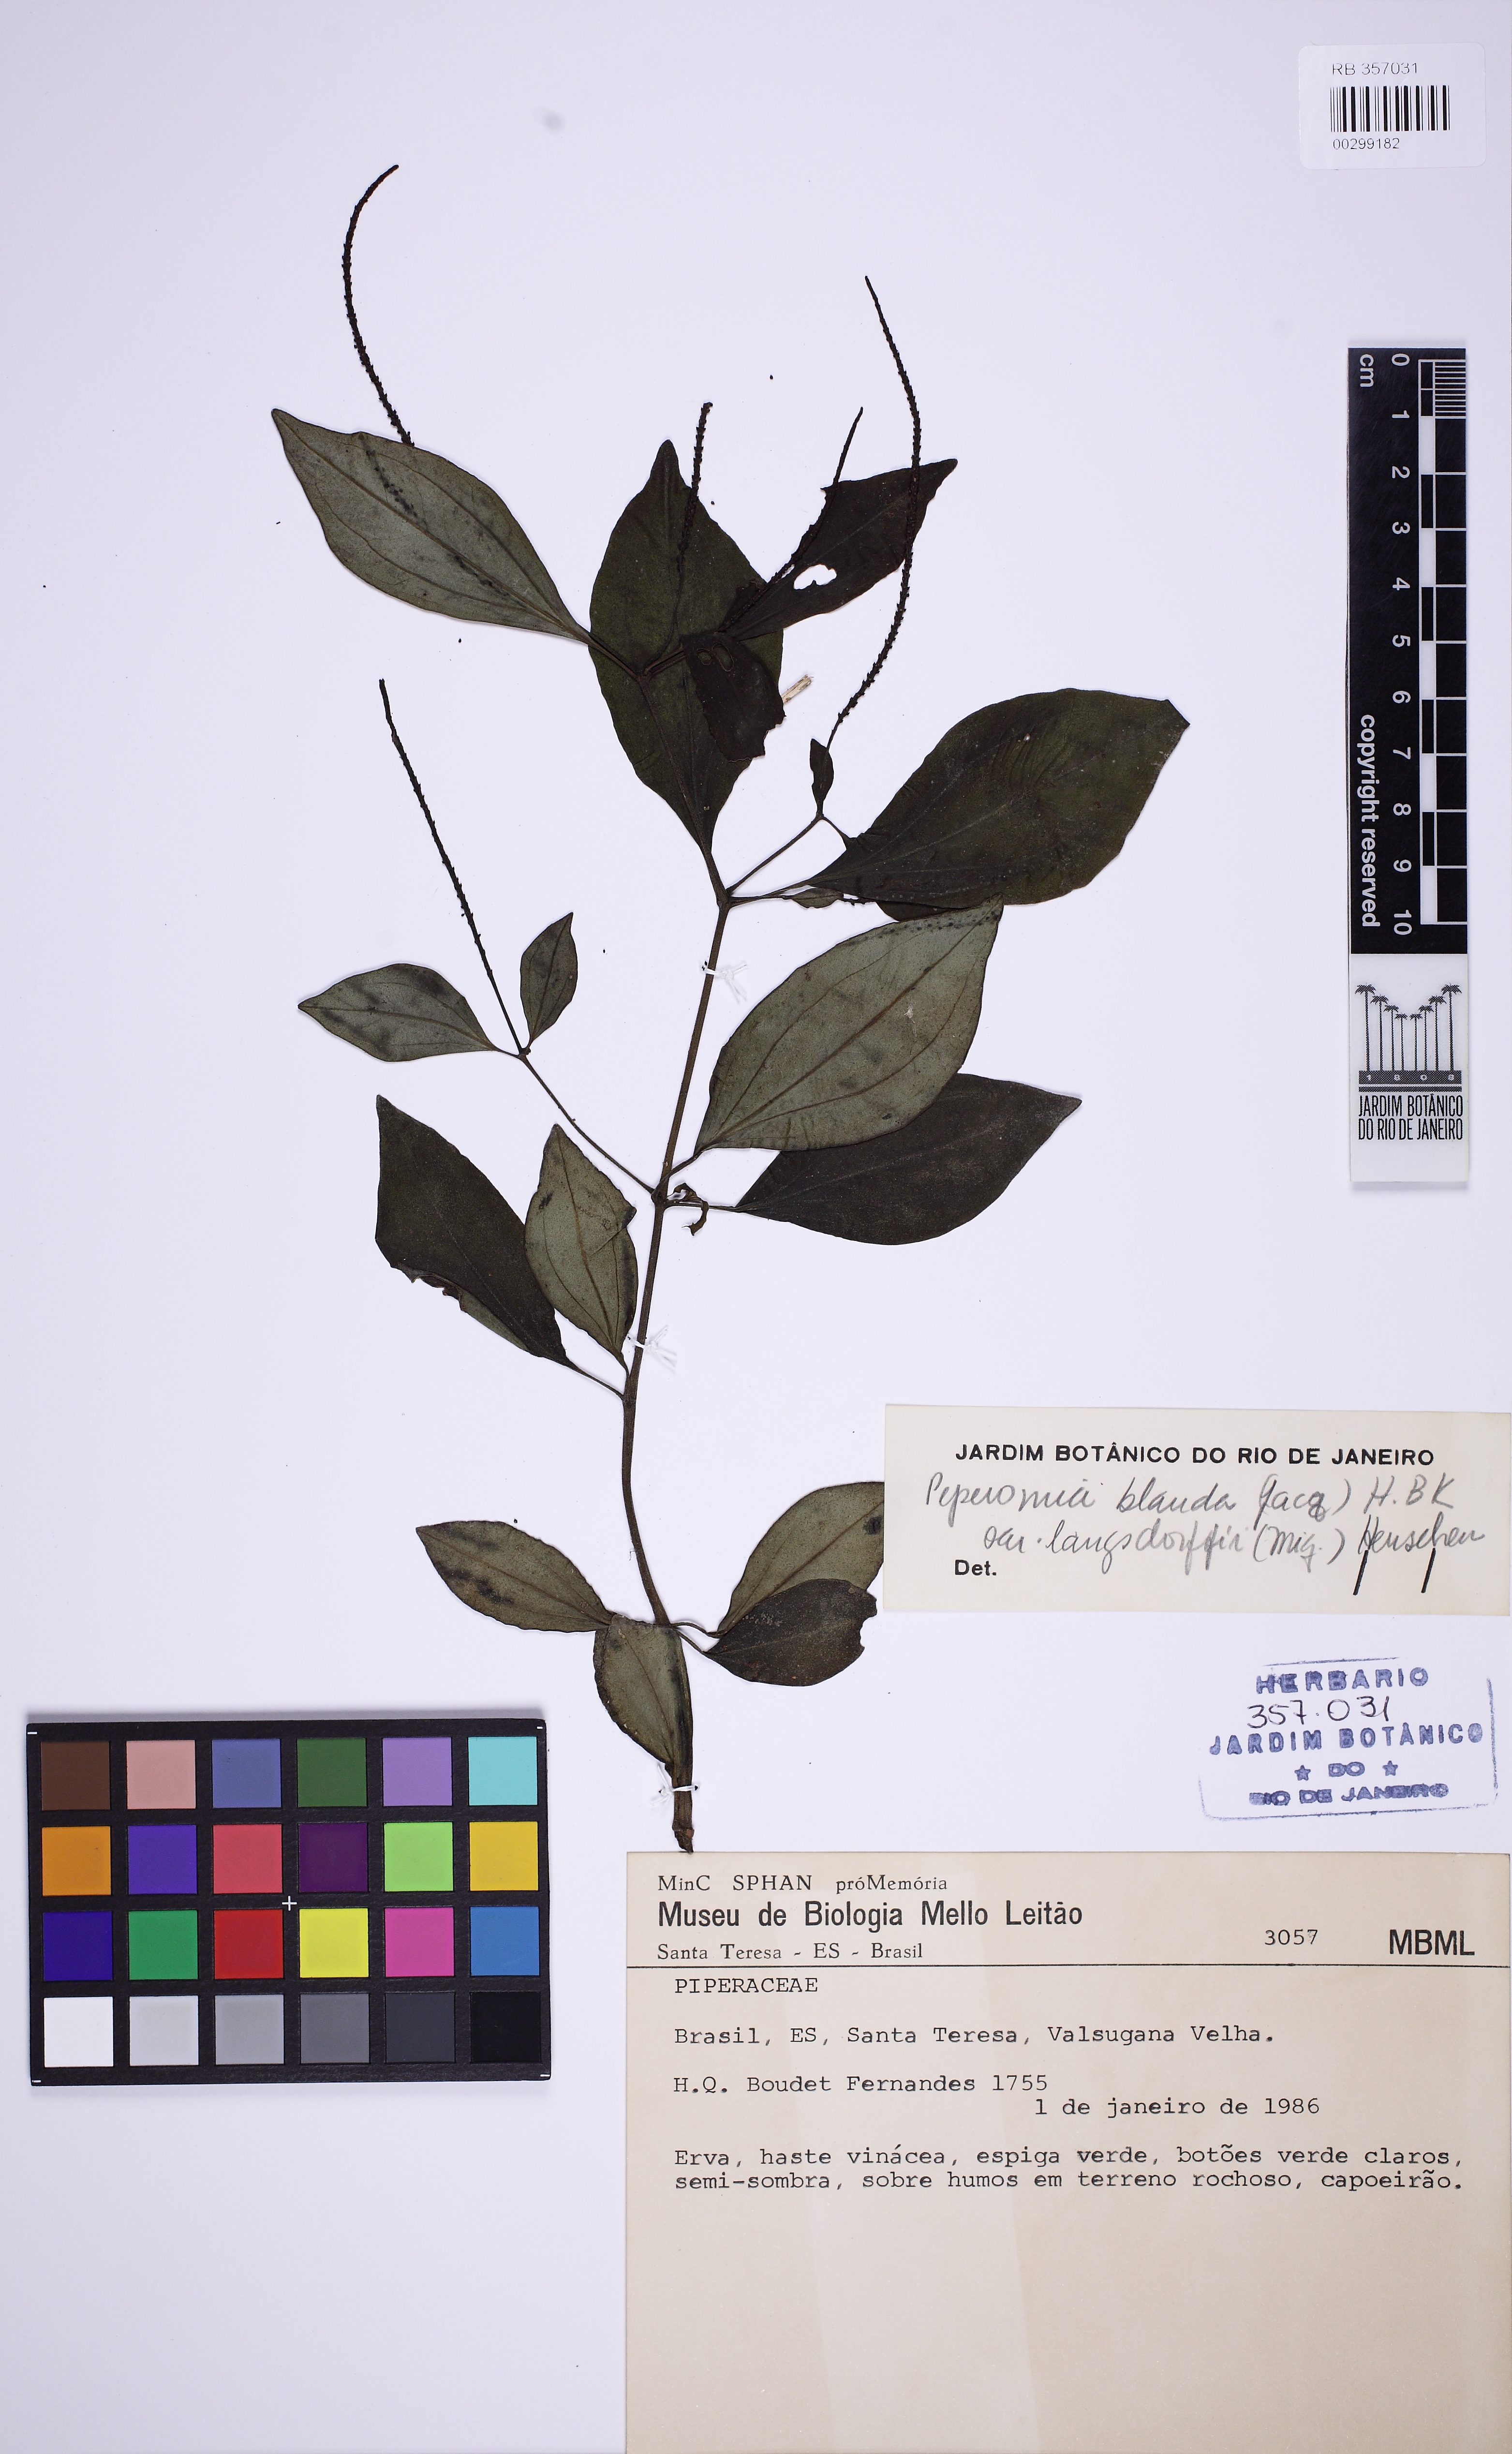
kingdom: Plantae
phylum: Tracheophyta
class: Magnoliopsida
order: Piperales
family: Piperaceae
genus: Peperomia
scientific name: Peperomia blanda
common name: Arid-land peperomia
